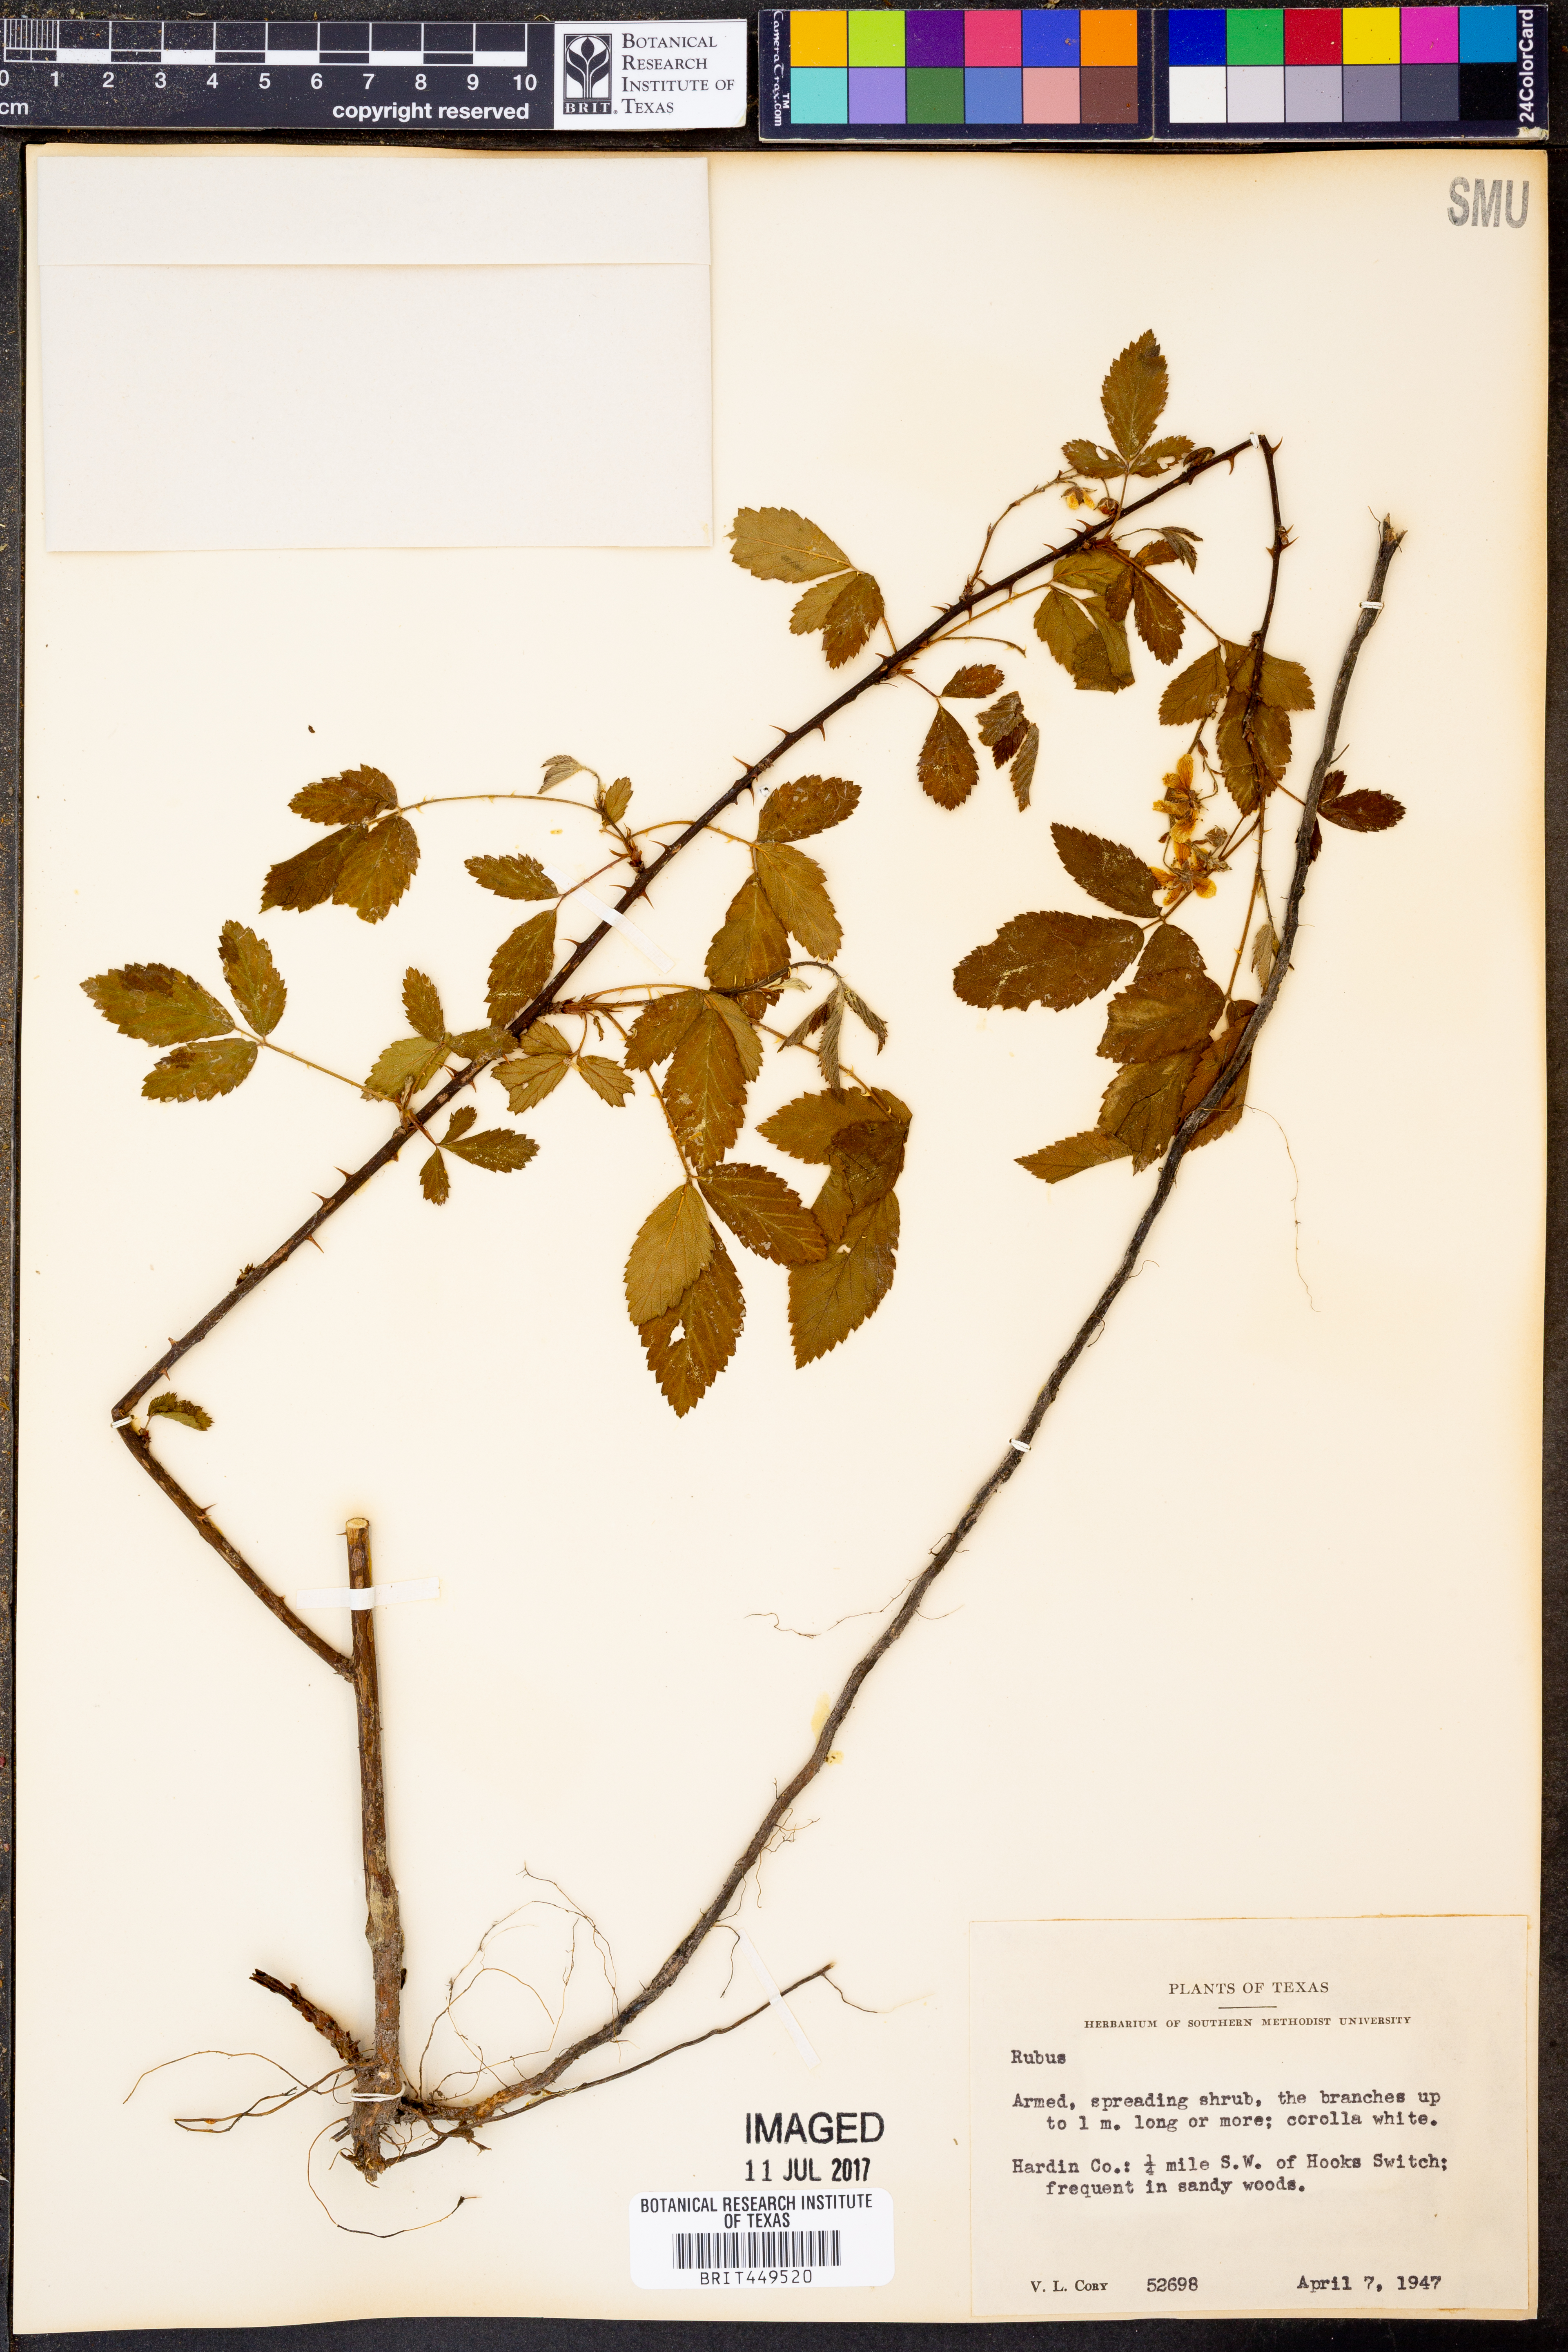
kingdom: Plantae
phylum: Tracheophyta
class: Magnoliopsida
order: Rosales
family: Rosaceae
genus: Rubus
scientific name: Rubus
